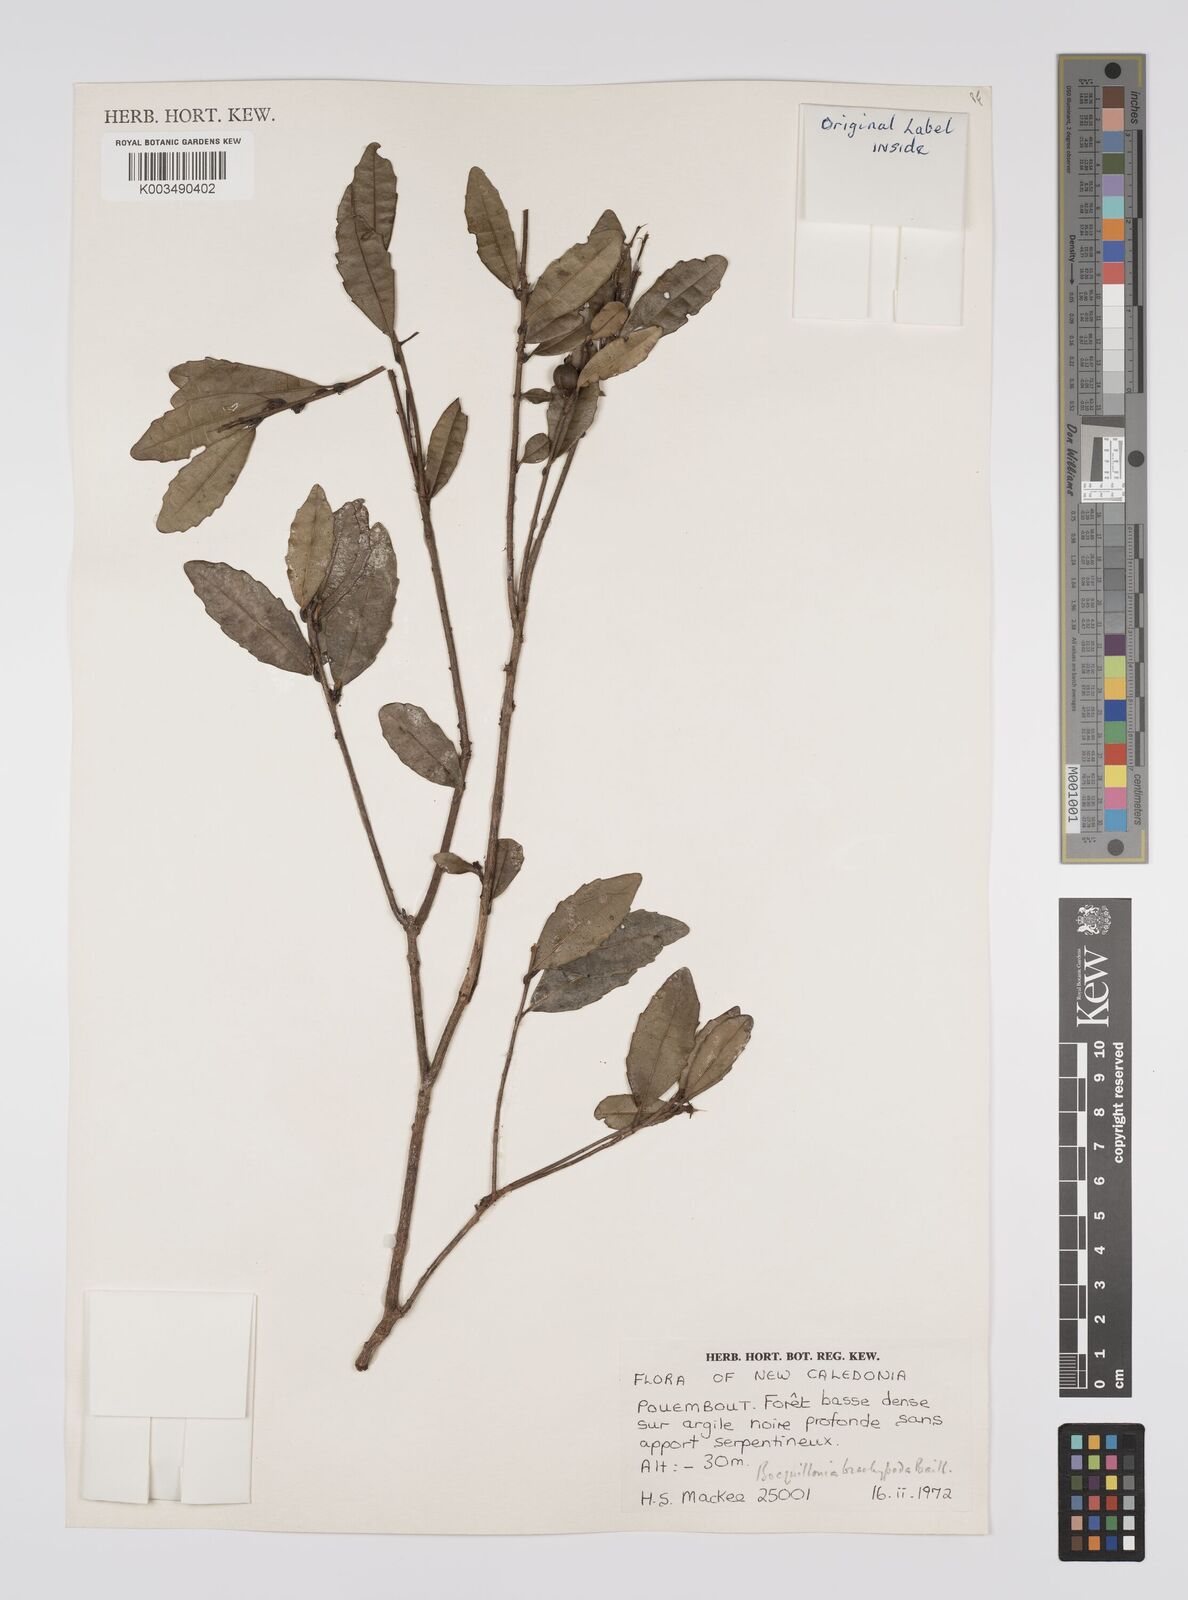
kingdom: Plantae
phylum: Tracheophyta
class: Magnoliopsida
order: Malpighiales
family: Euphorbiaceae
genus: Bocquillonia
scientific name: Bocquillonia brachypoda
